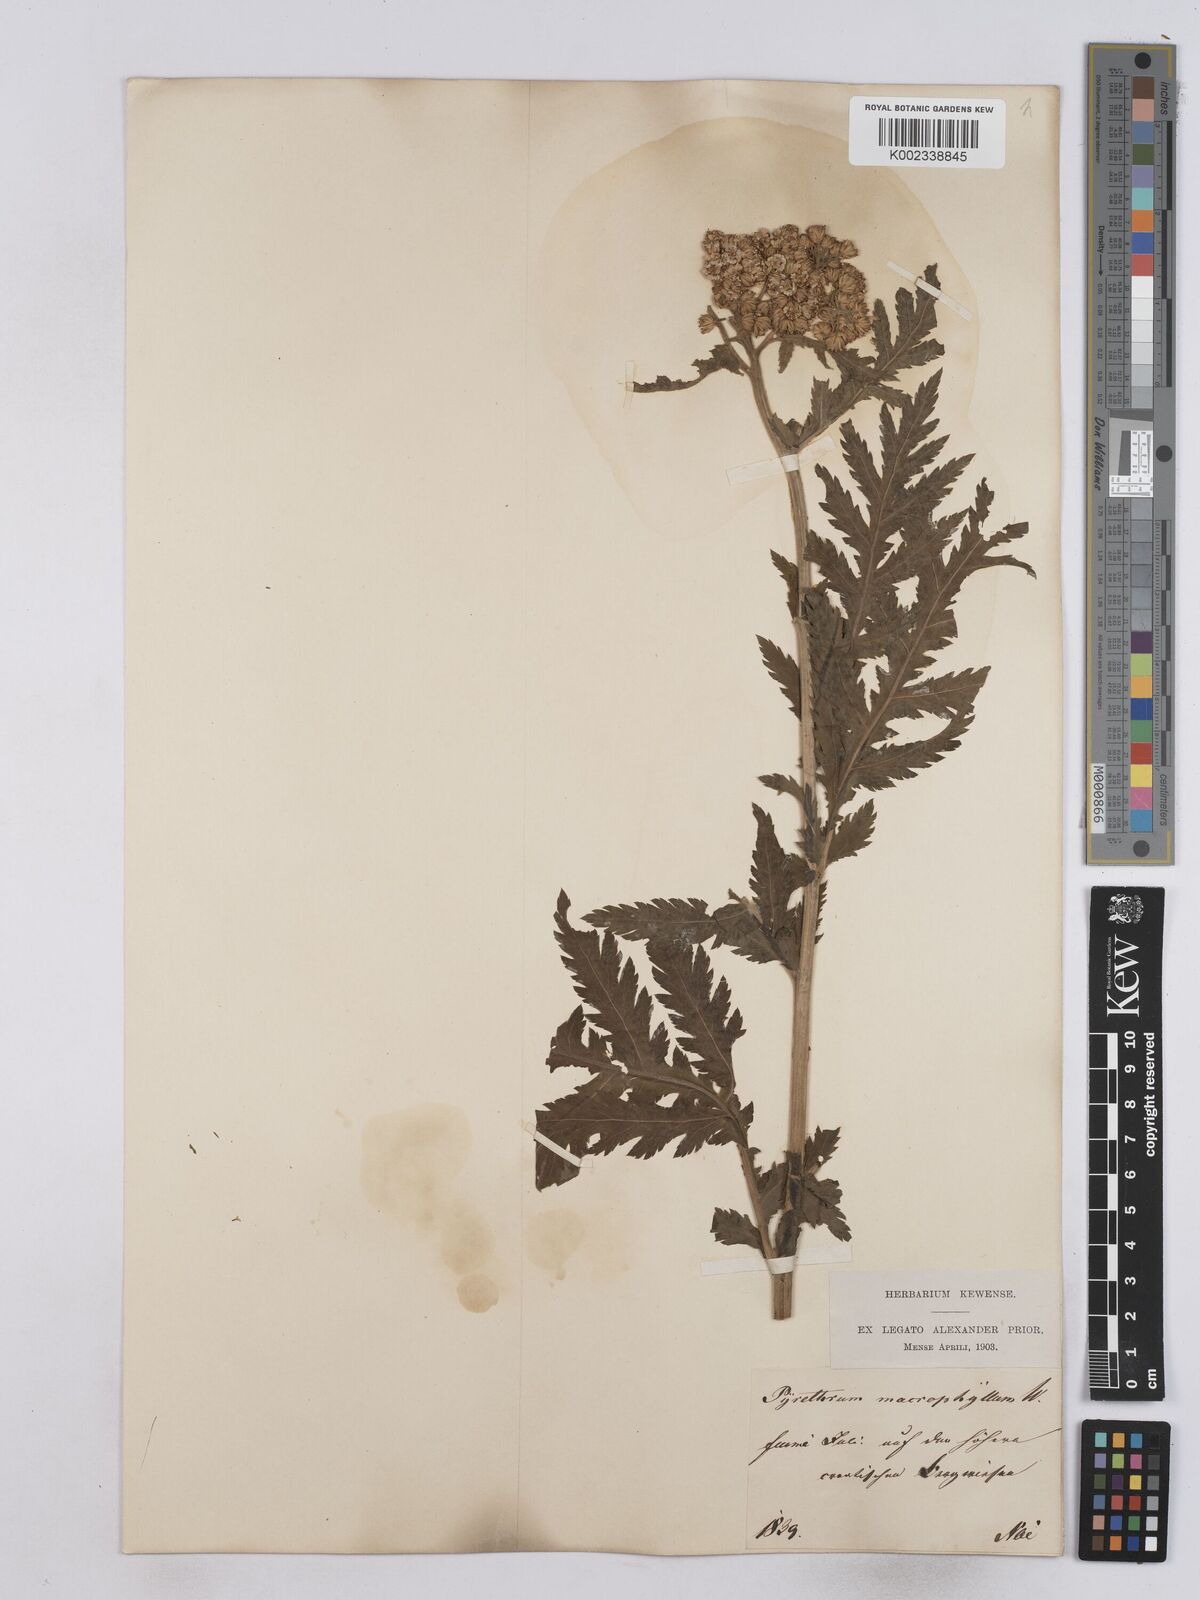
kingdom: Plantae
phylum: Tracheophyta
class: Magnoliopsida
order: Asterales
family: Asteraceae
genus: Tanacetum
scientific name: Tanacetum macrophyllum
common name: Rayed tansy
